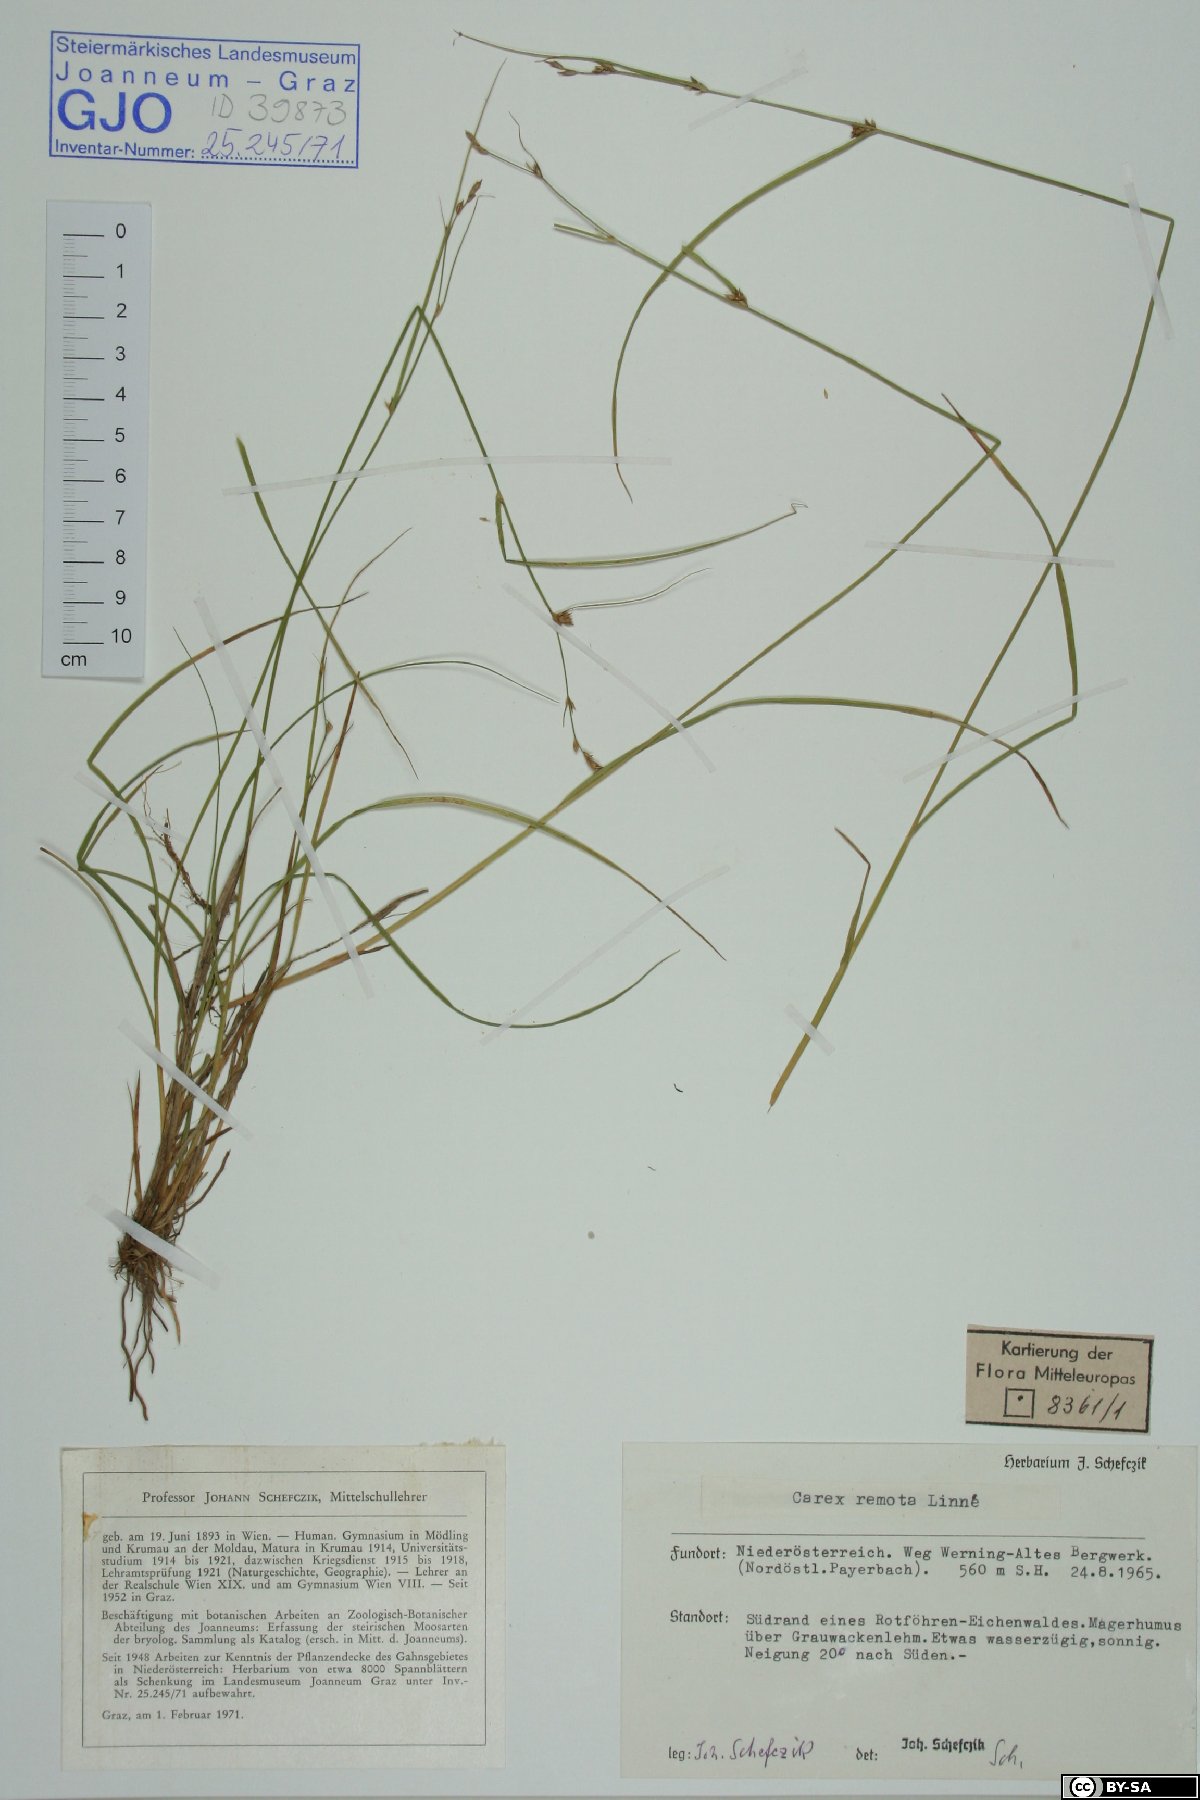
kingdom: Plantae
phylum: Tracheophyta
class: Liliopsida
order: Poales
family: Cyperaceae
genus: Carex
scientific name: Carex remota
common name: Remote sedge
